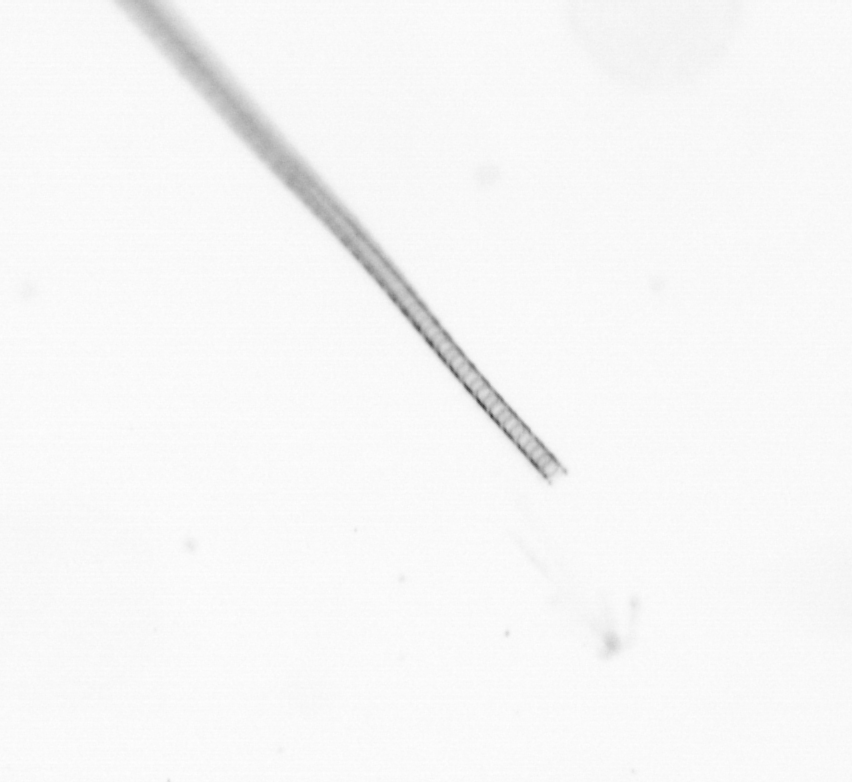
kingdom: Chromista
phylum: Ochrophyta
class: Bacillariophyceae
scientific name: Bacillariophyceae
